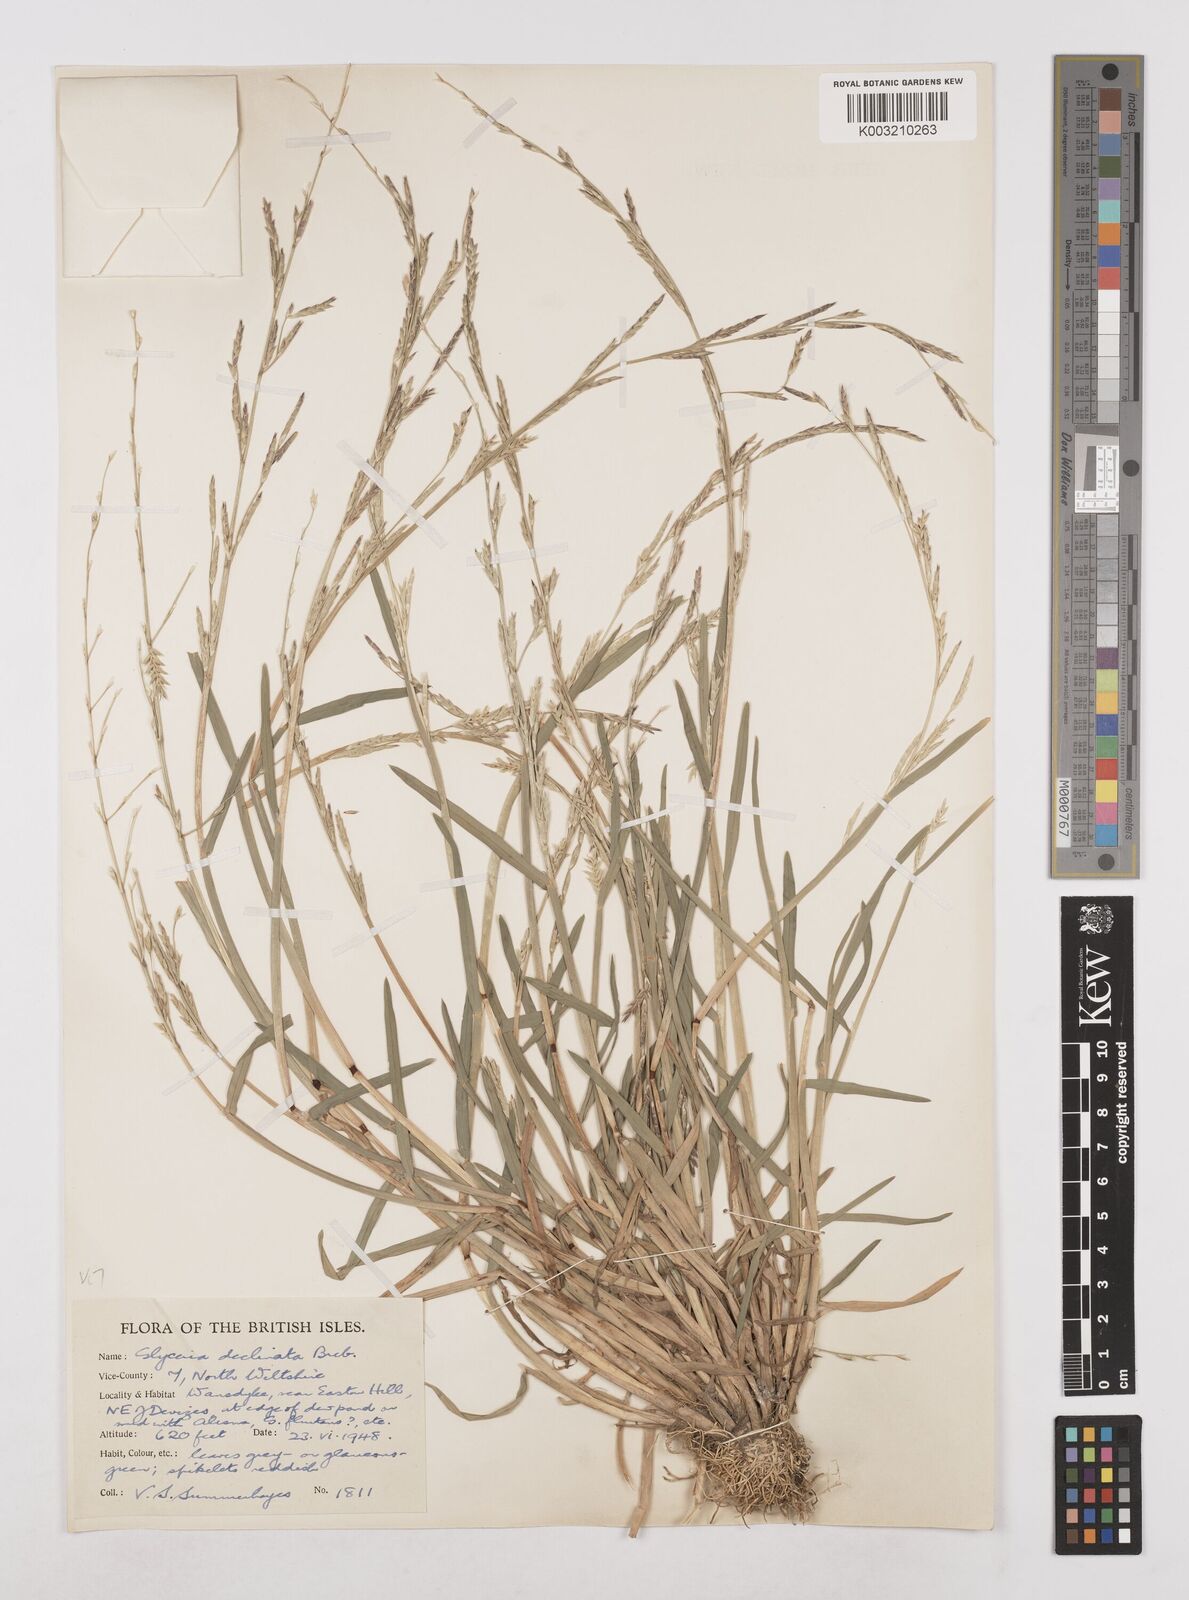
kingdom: Plantae
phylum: Tracheophyta
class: Liliopsida
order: Poales
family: Poaceae
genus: Glyceria
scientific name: Glyceria declinata
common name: Small sweet-grass
